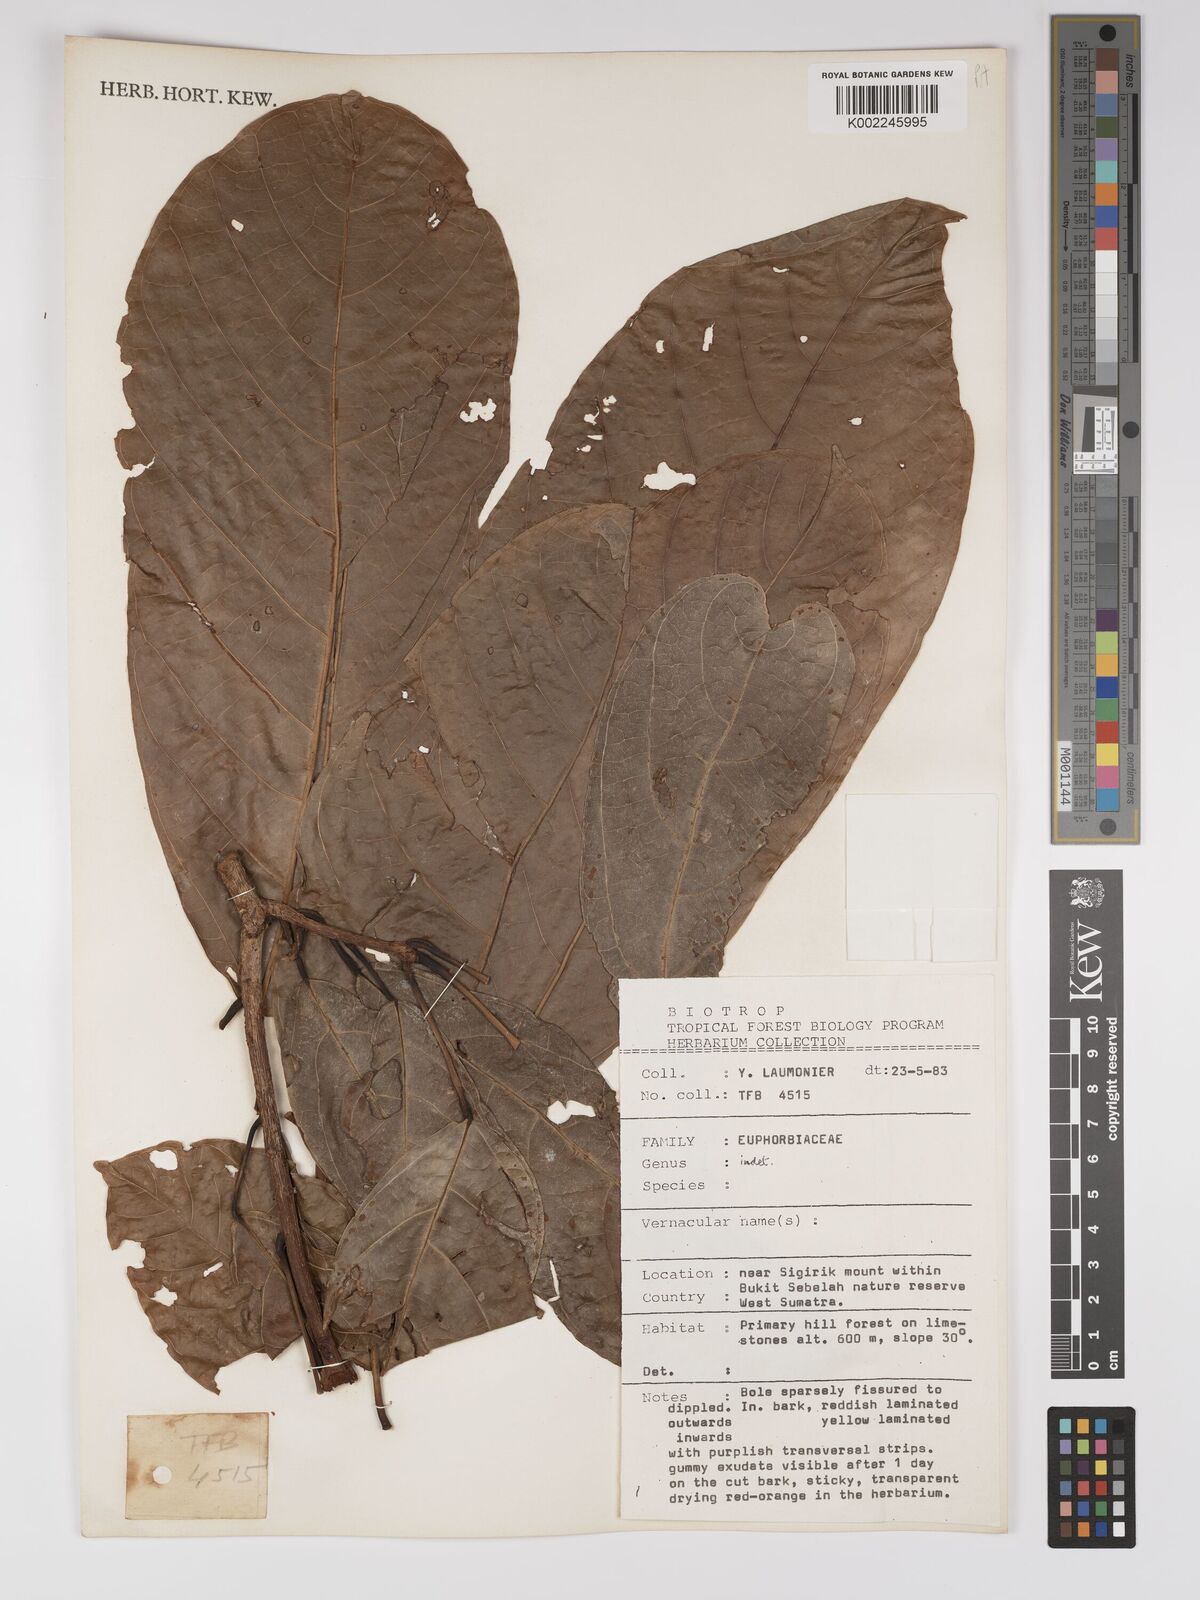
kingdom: Plantae
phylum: Tracheophyta
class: Magnoliopsida
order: Malpighiales
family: Euphorbiaceae
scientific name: Euphorbiaceae
